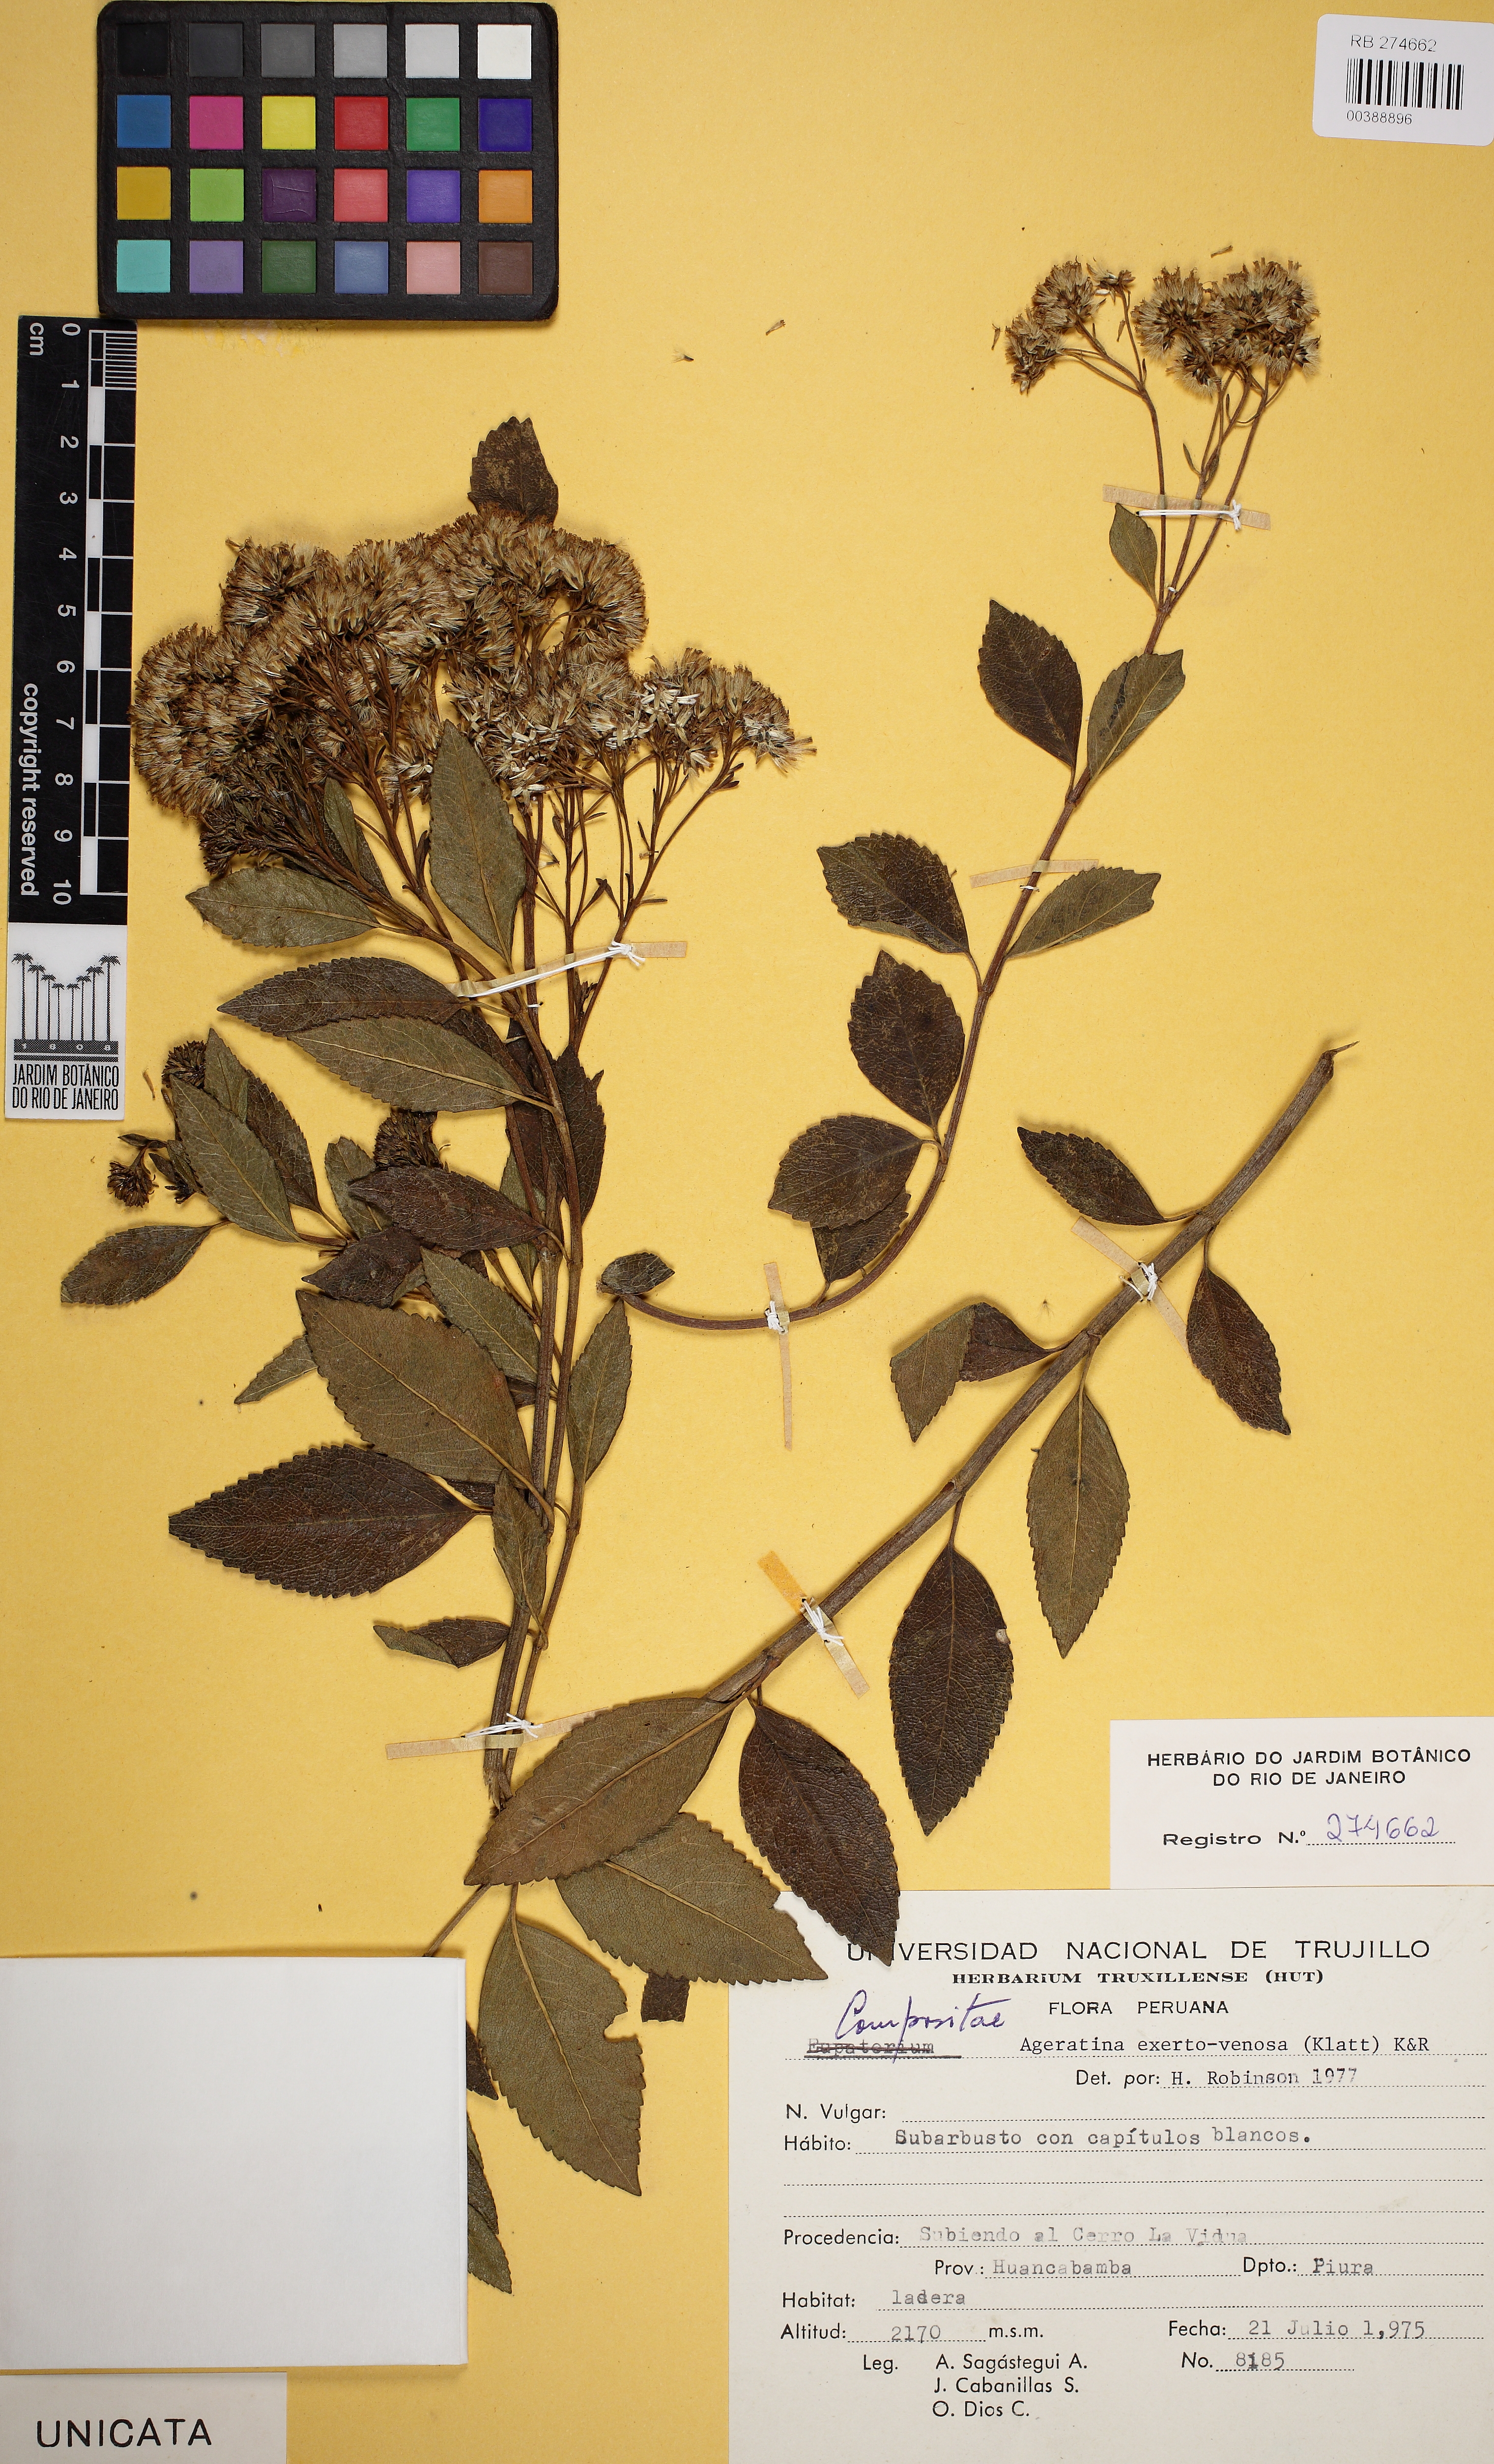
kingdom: Plantae
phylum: Tracheophyta
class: Magnoliopsida
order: Asterales
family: Asteraceae
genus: Ageratina
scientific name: Ageratina fastigiata
